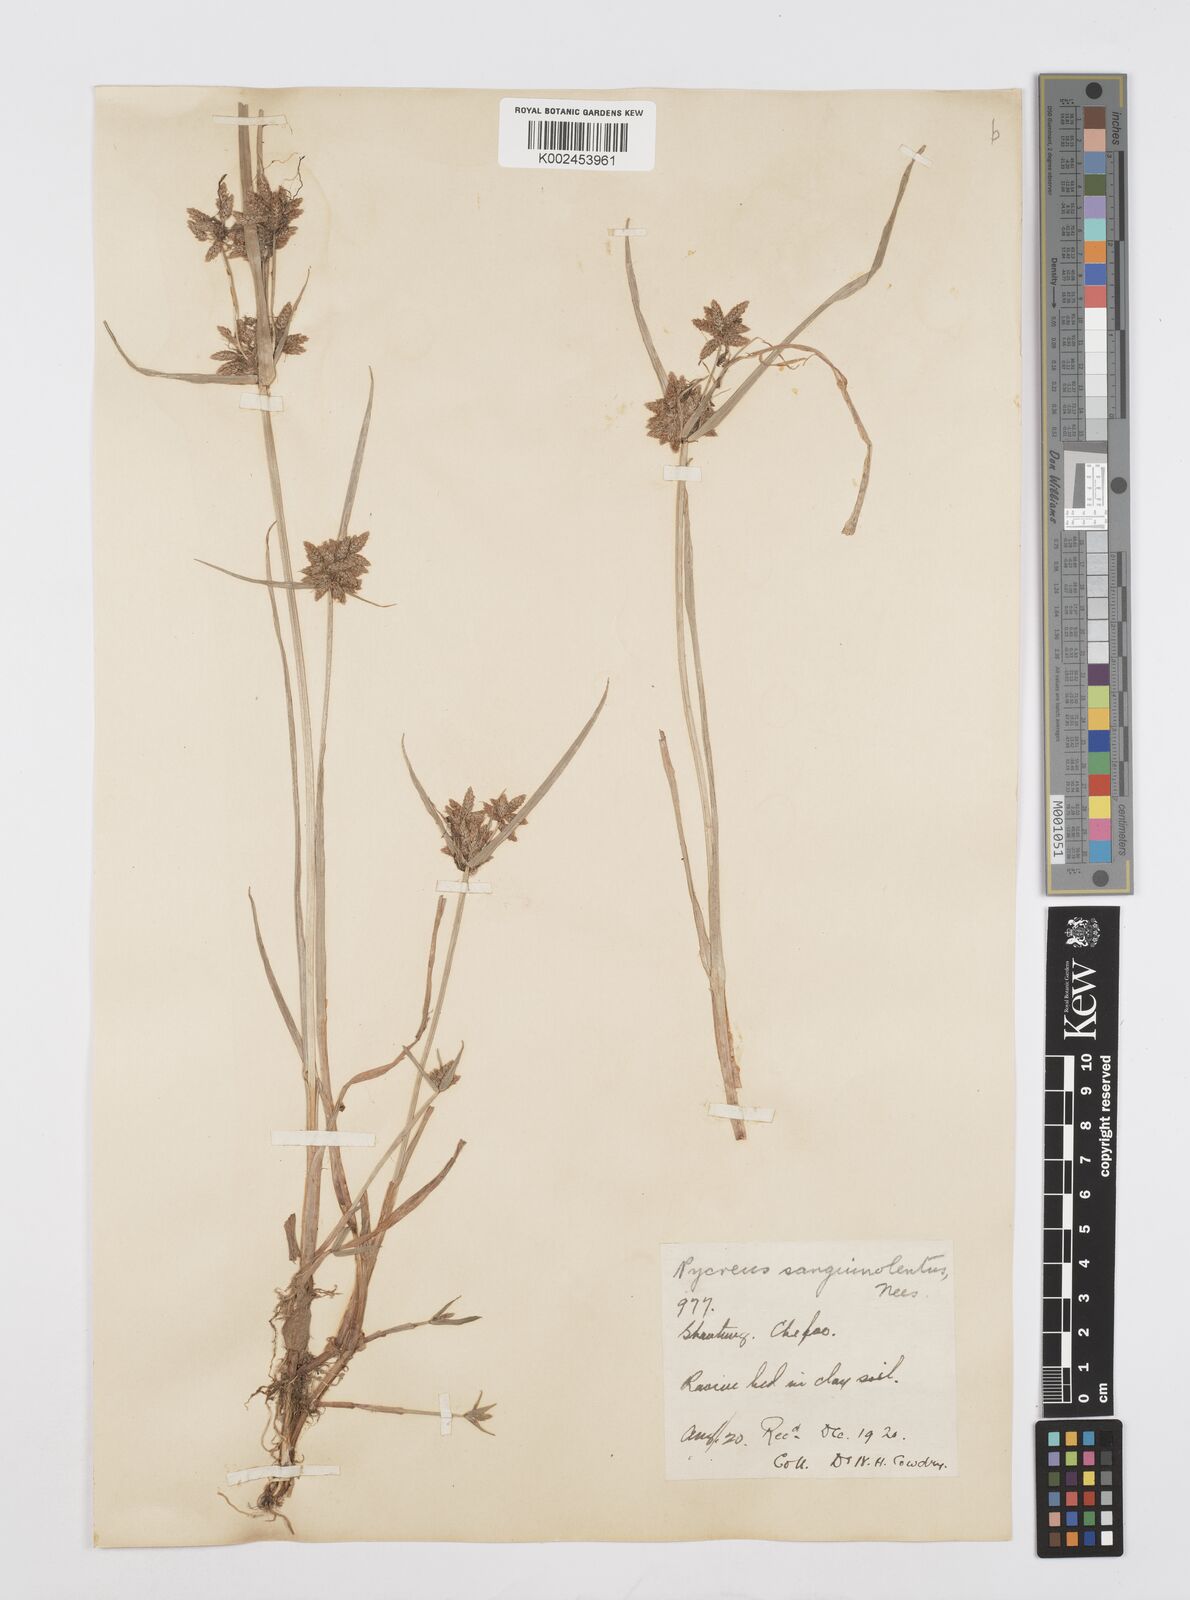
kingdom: Plantae
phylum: Tracheophyta
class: Liliopsida
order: Poales
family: Cyperaceae
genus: Cyperus
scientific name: Cyperus sanguinolentus
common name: Purpleglume flatsedge
